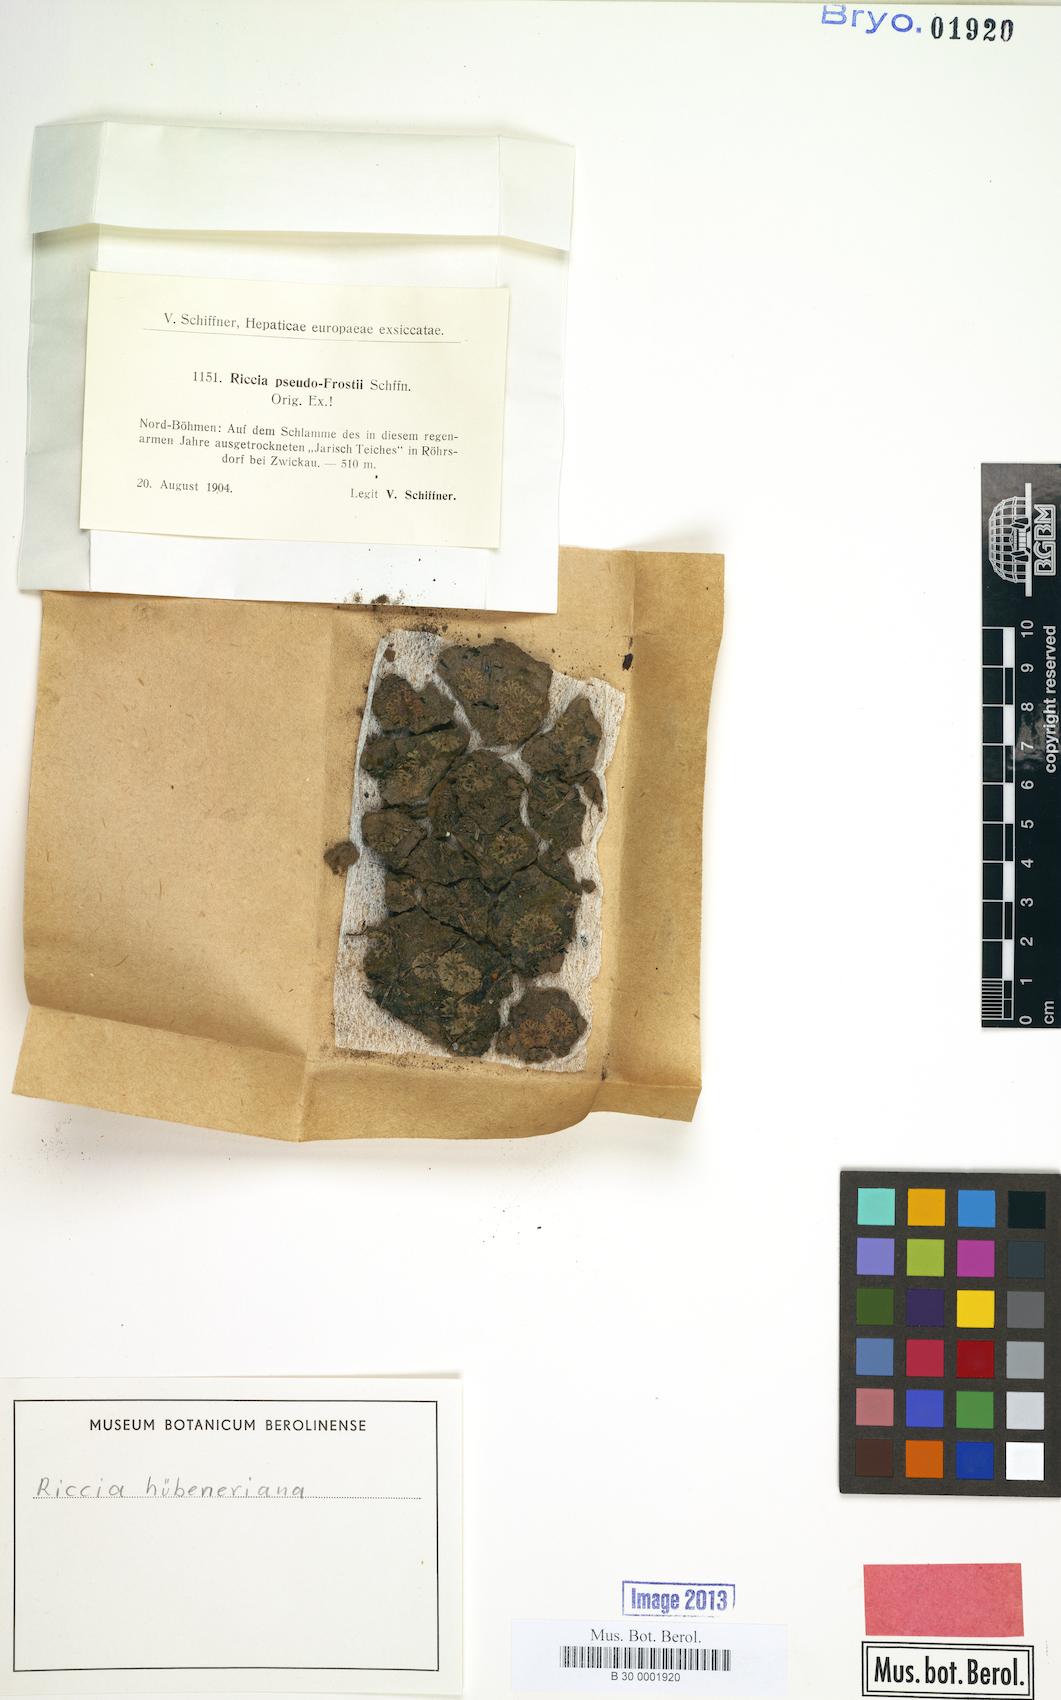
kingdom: Plantae
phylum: Marchantiophyta
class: Marchantiopsida
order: Marchantiales
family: Ricciaceae
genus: Riccia
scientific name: Riccia huebeneriana
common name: Violet crystalwort
